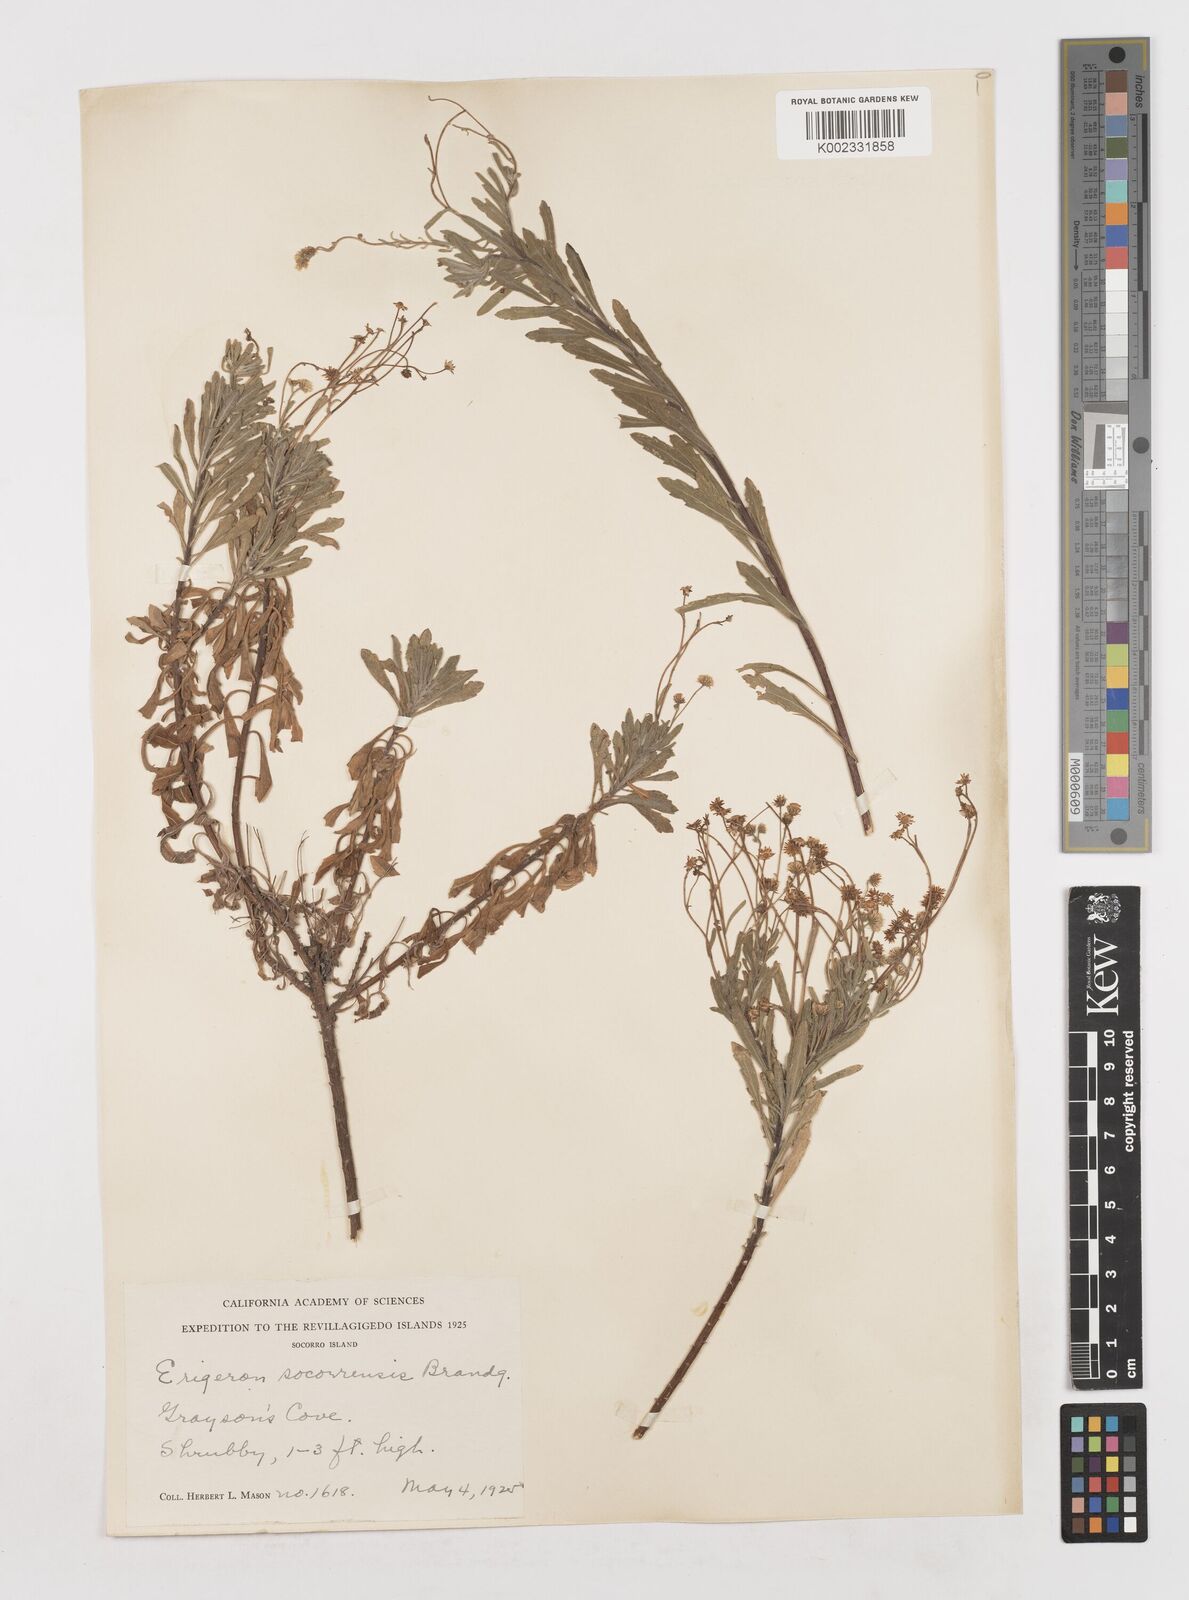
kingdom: Plantae
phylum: Tracheophyta
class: Magnoliopsida
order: Asterales
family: Asteraceae
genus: Erigeron
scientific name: Erigeron socorrensis
